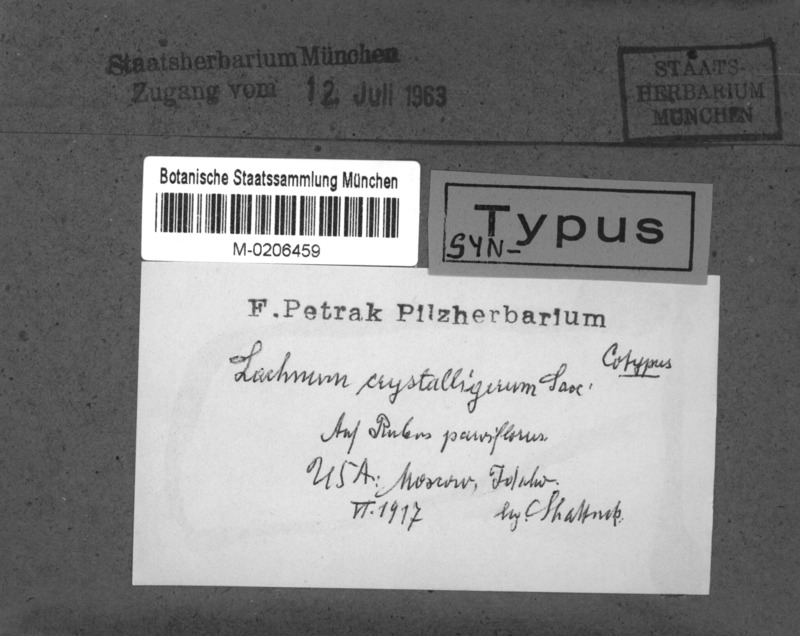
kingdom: Fungi
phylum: Ascomycota
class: Leotiomycetes
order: Helotiales
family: Lachnaceae
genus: Lachnum
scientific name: Lachnum crystalligerum
